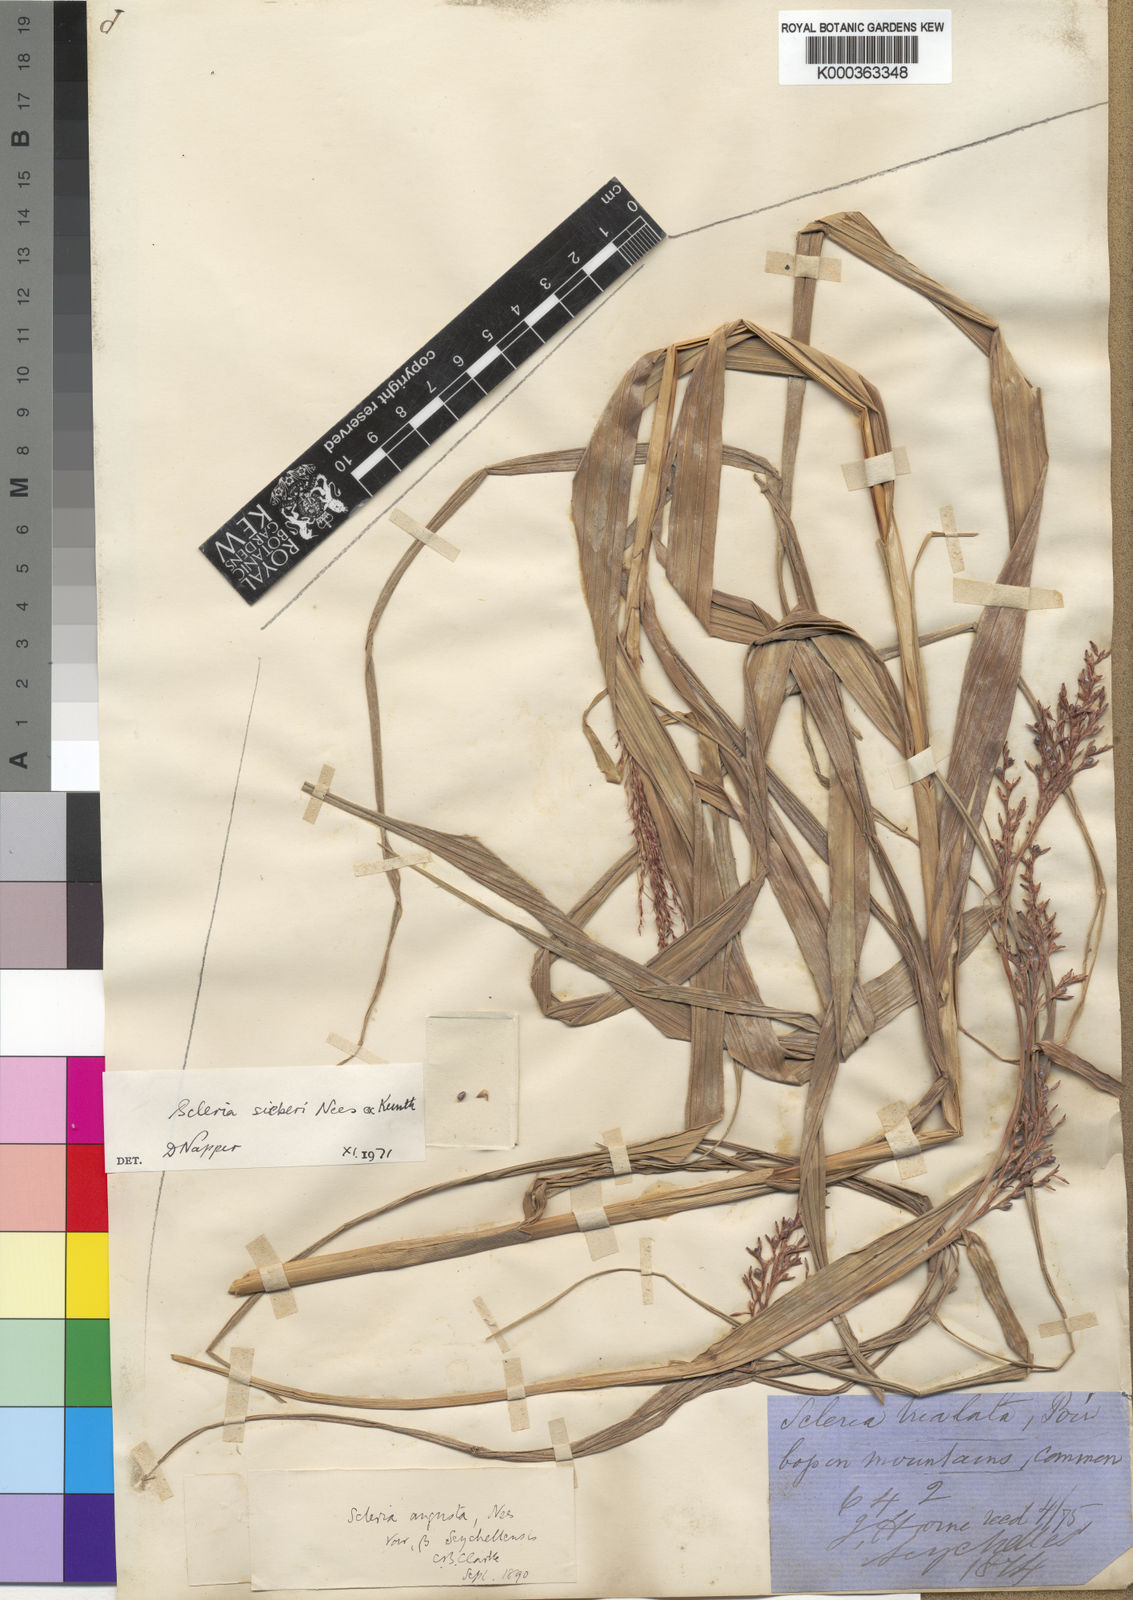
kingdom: Plantae
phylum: Tracheophyta
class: Liliopsida
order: Poales
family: Cyperaceae
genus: Scleria
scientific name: Scleria gaertneri
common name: Cortadera blanca
